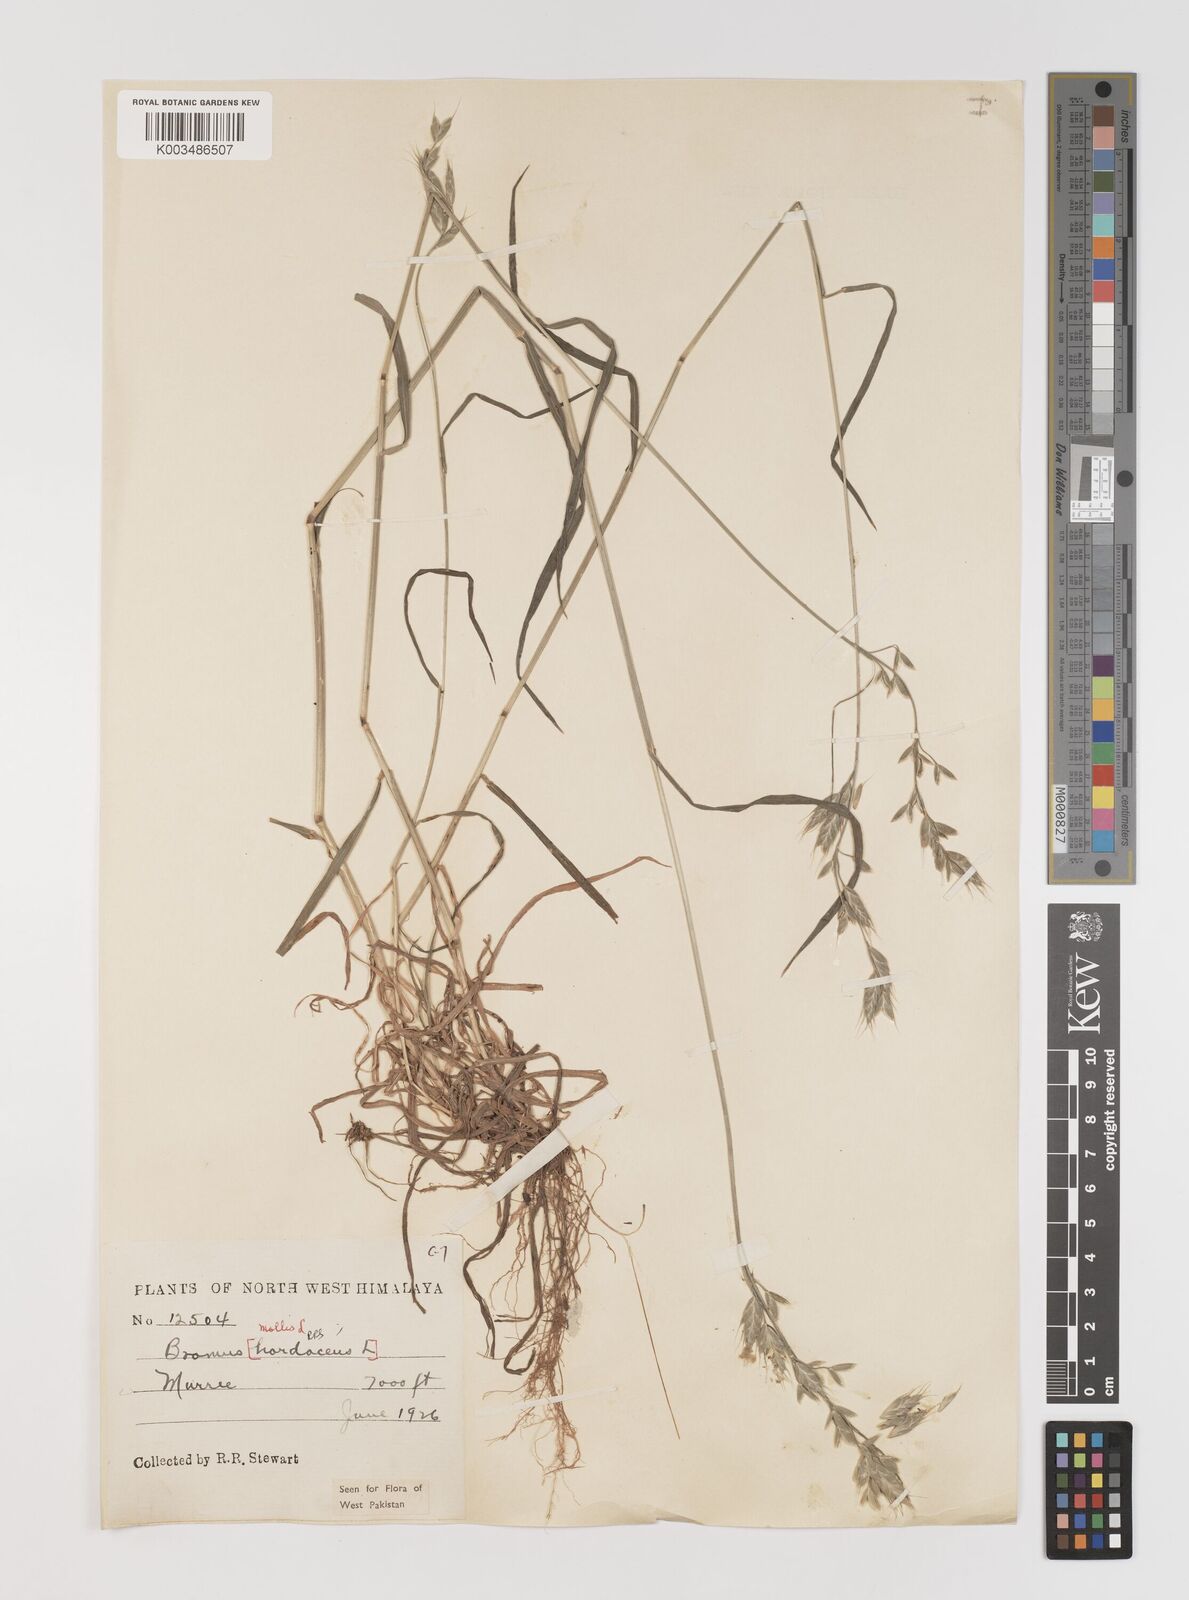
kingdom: Plantae
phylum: Tracheophyta
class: Liliopsida
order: Poales
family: Poaceae
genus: Bromus
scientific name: Bromus hordeaceus
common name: Soft brome
